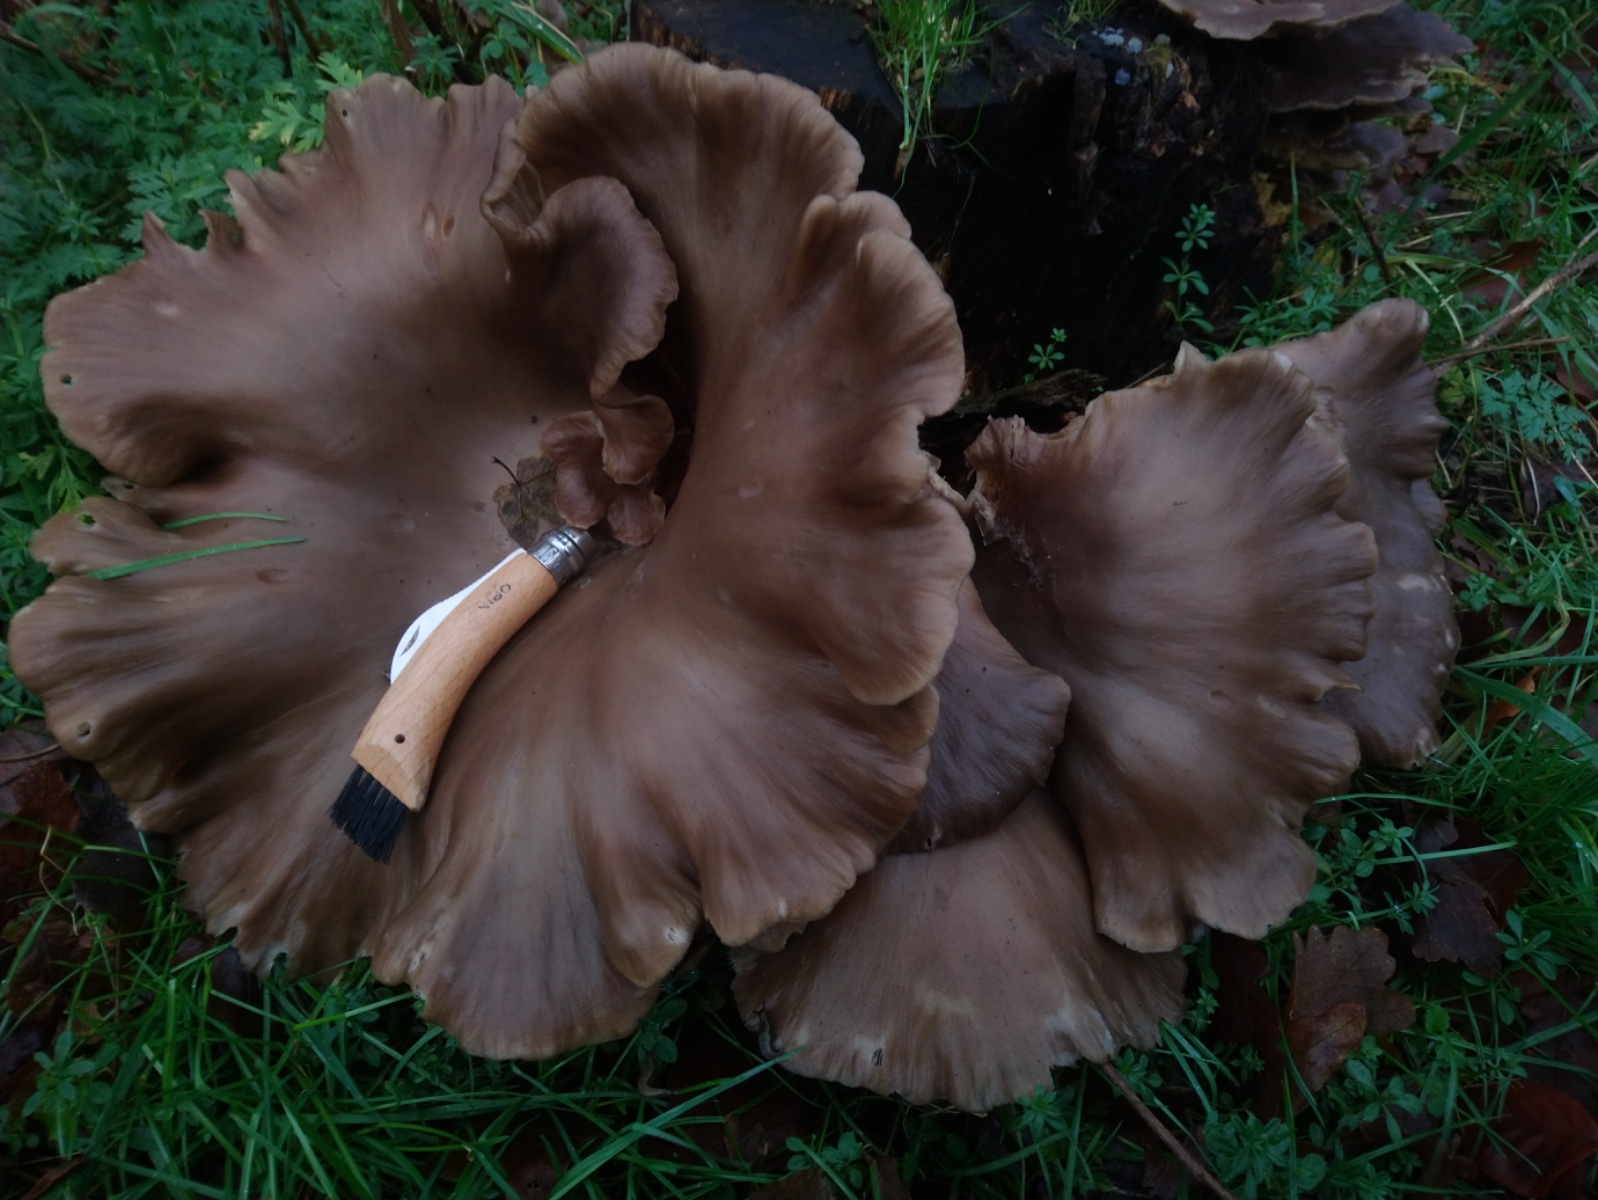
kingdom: Fungi
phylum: Basidiomycota
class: Agaricomycetes
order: Agaricales
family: Pleurotaceae
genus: Pleurotus
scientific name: Pleurotus ostreatus
